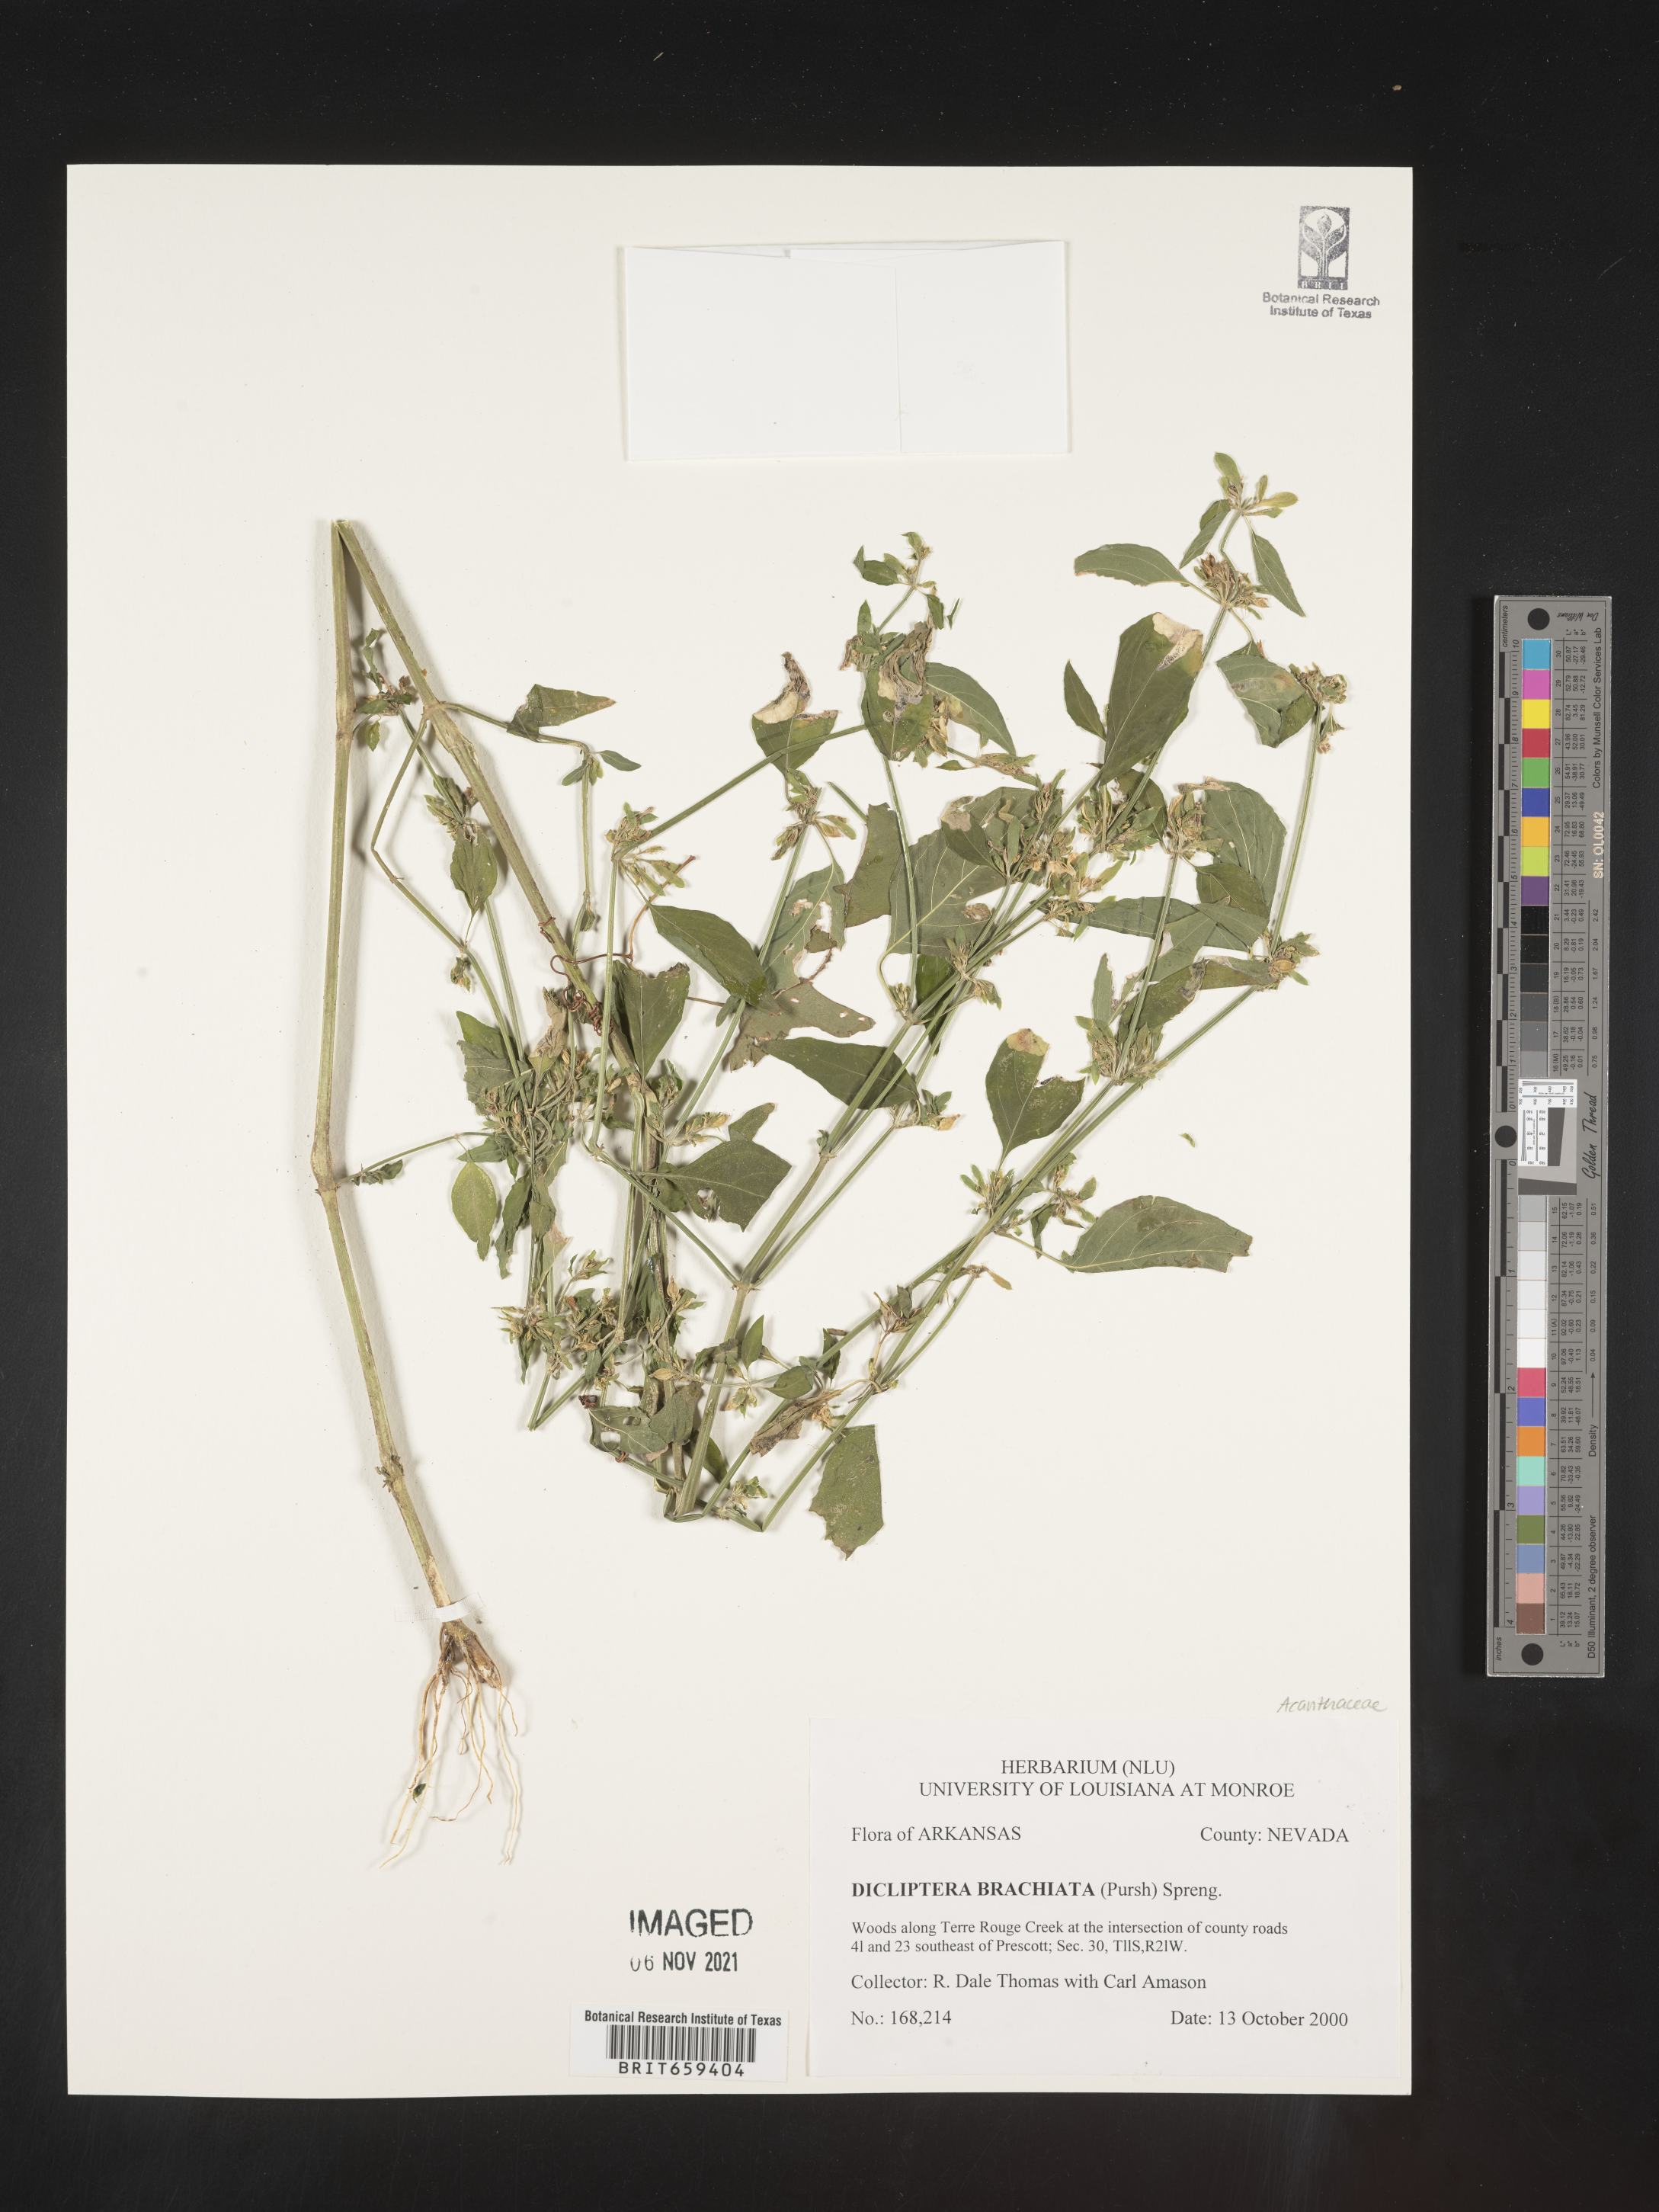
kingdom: Plantae
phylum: Tracheophyta
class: Magnoliopsida
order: Lamiales
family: Acanthaceae
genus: Dicliptera
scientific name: Dicliptera brachiata
